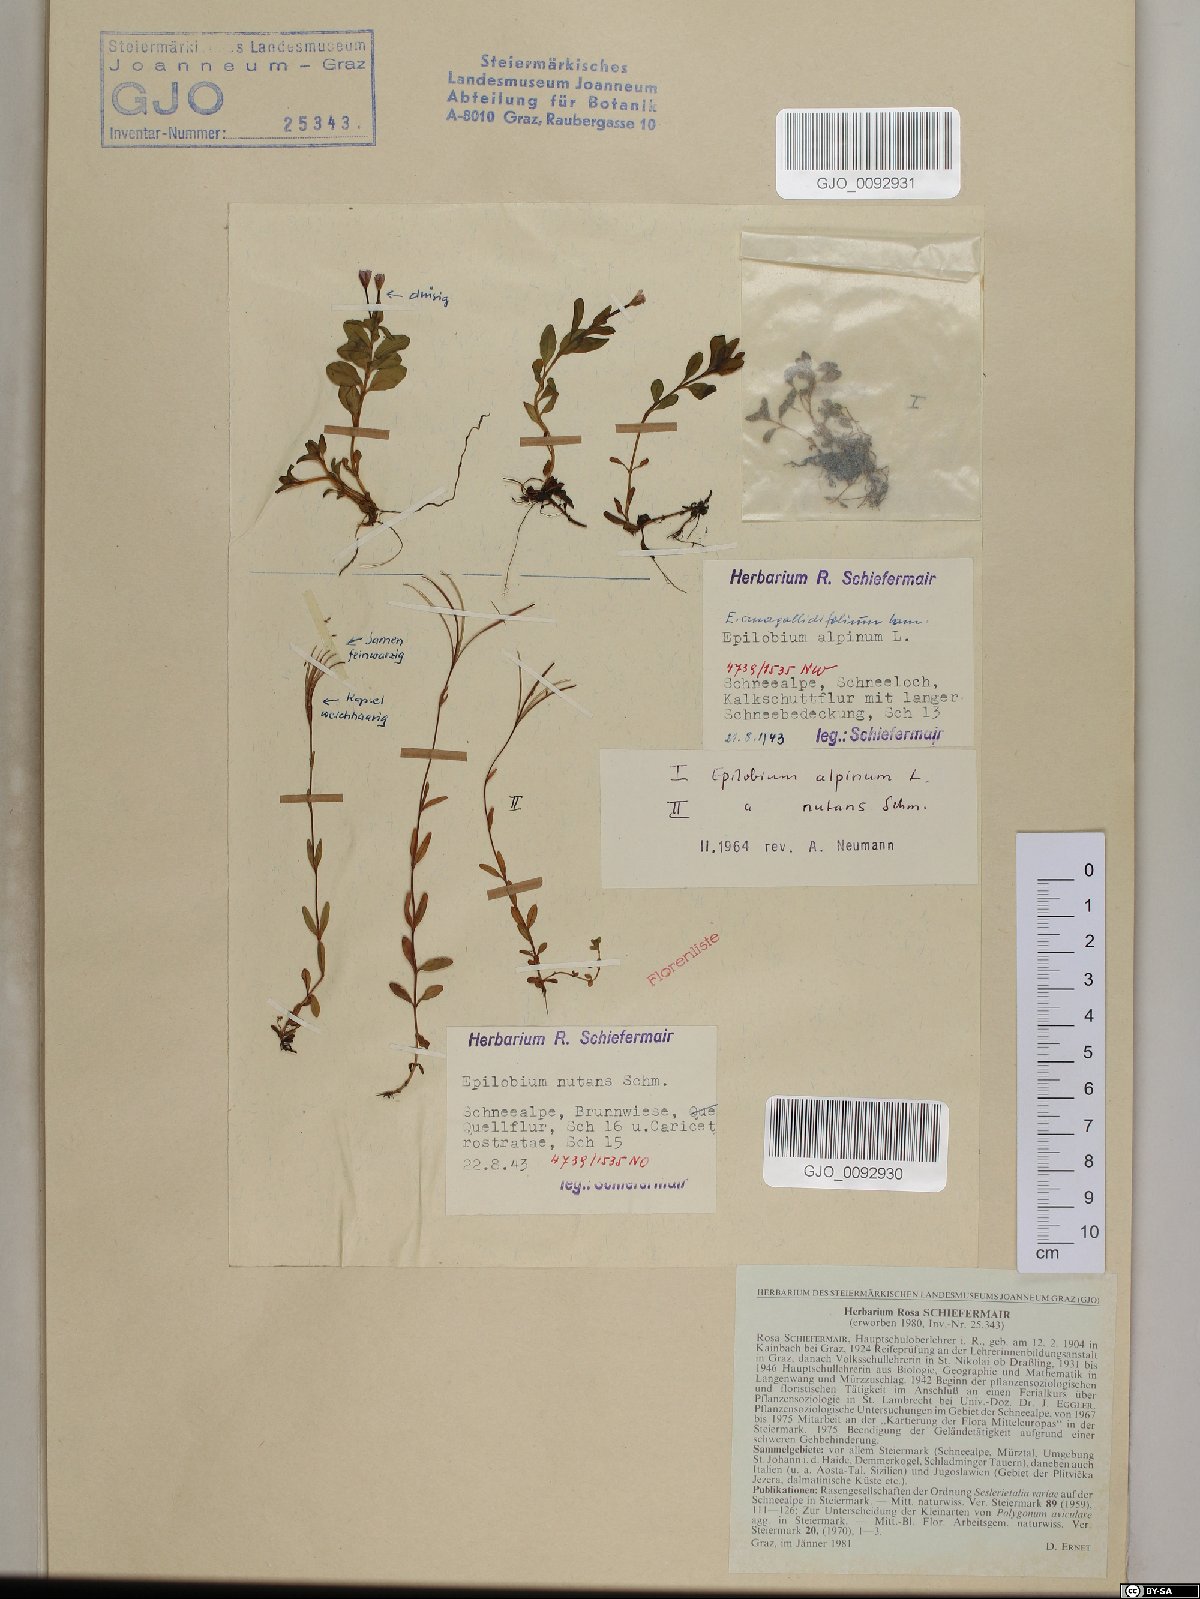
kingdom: Plantae
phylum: Tracheophyta
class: Magnoliopsida
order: Myrtales
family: Onagraceae
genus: Epilobium
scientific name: Epilobium nutans
